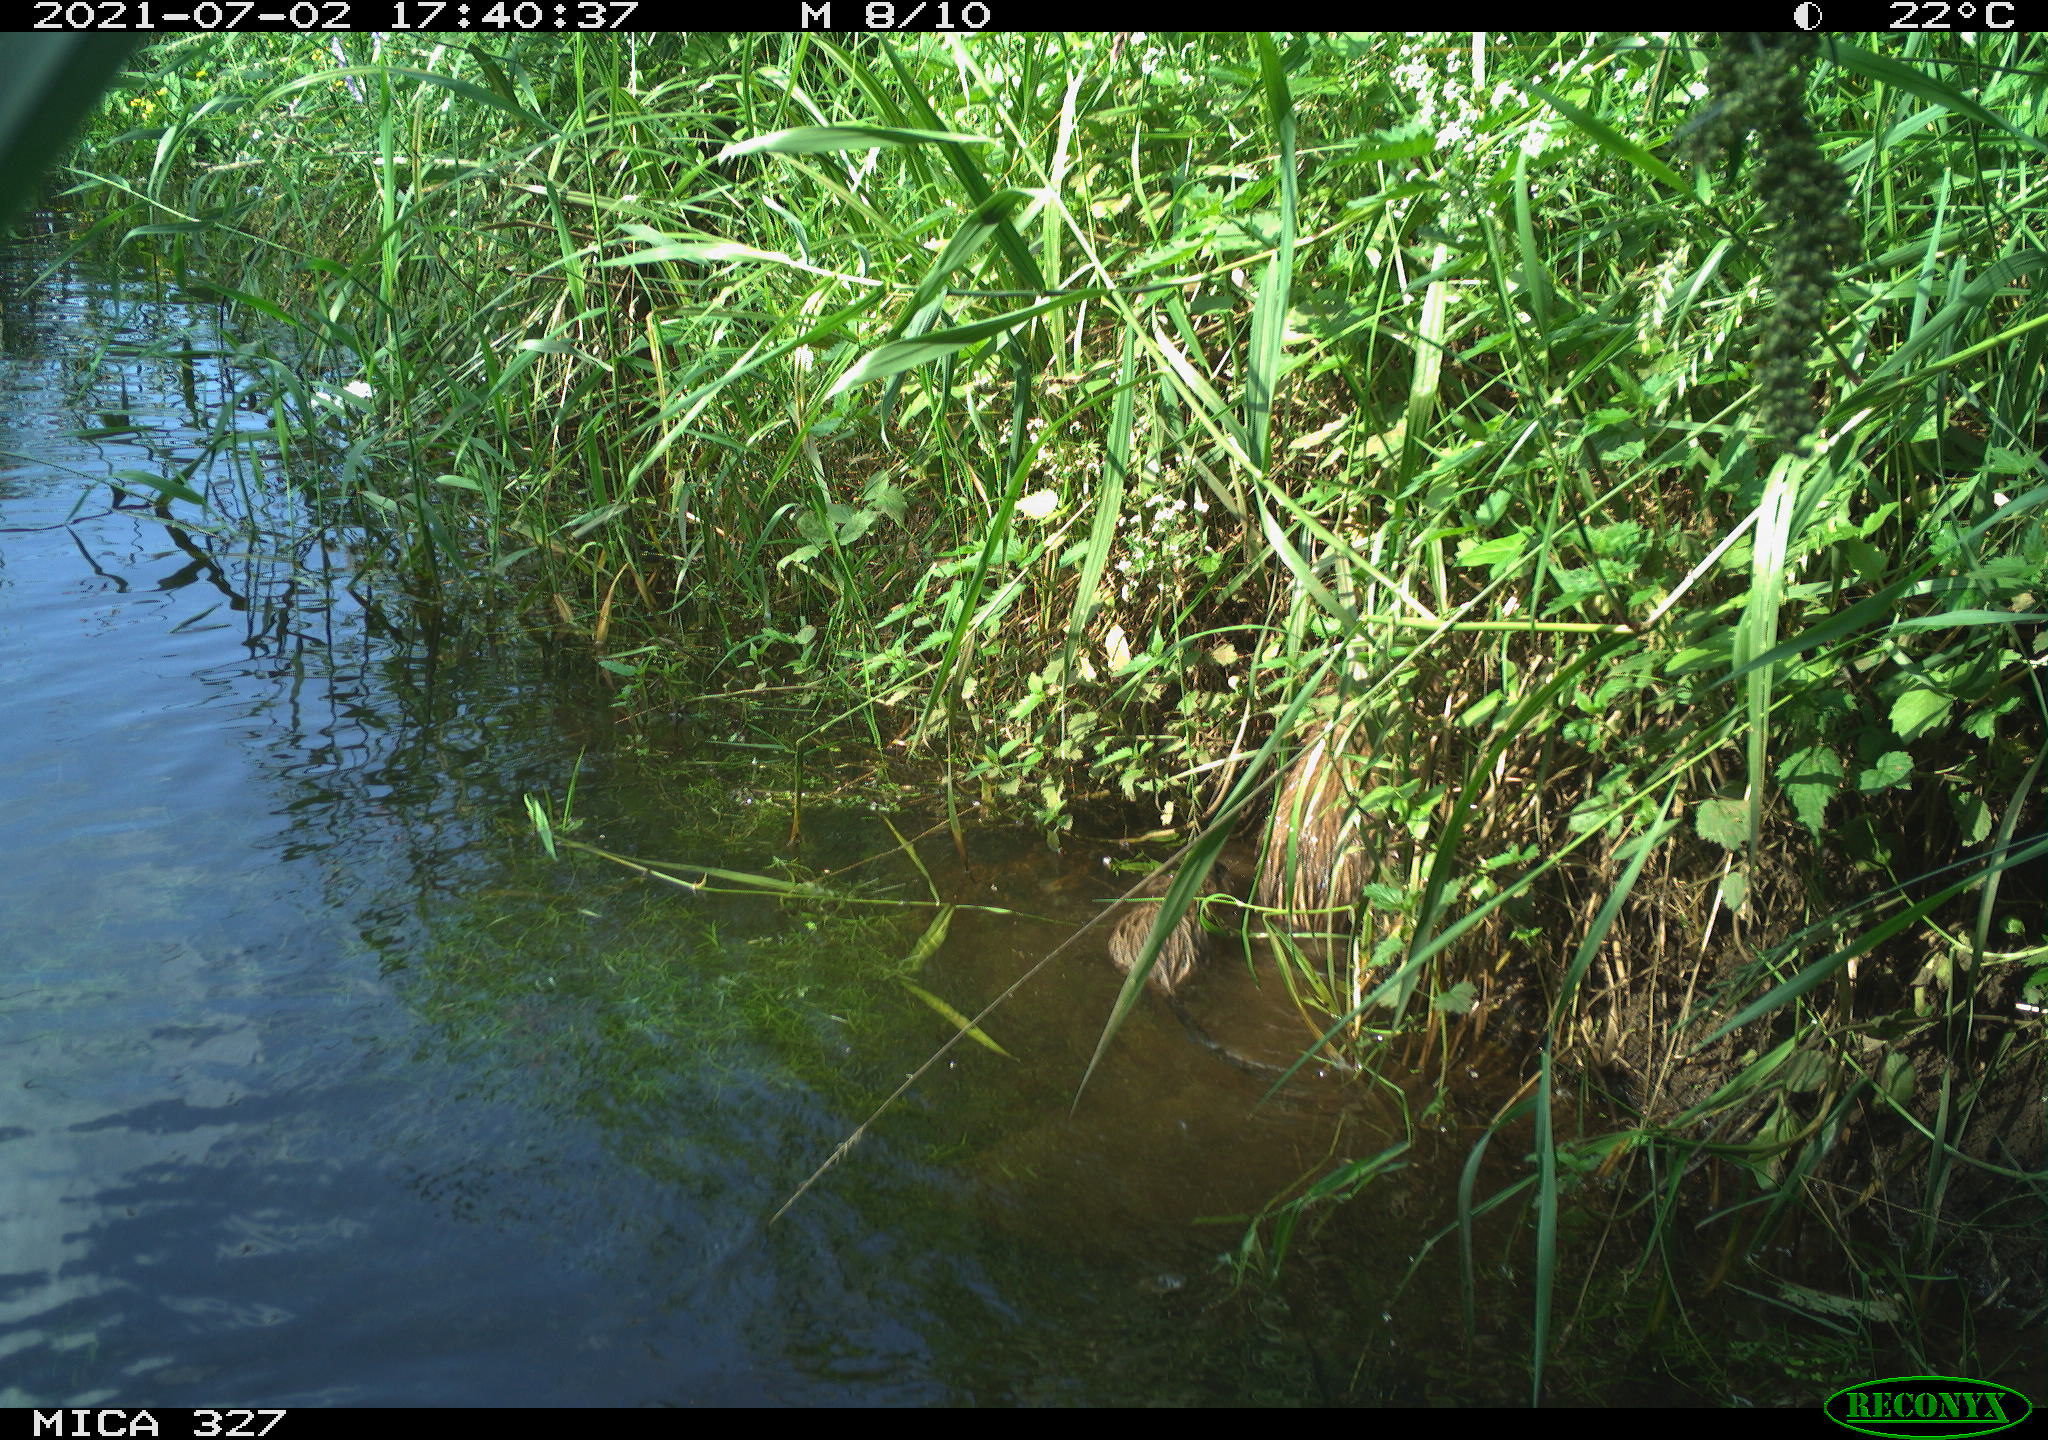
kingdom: Animalia
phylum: Chordata
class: Mammalia
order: Rodentia
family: Cricetidae
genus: Ondatra
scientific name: Ondatra zibethicus
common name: Muskrat
